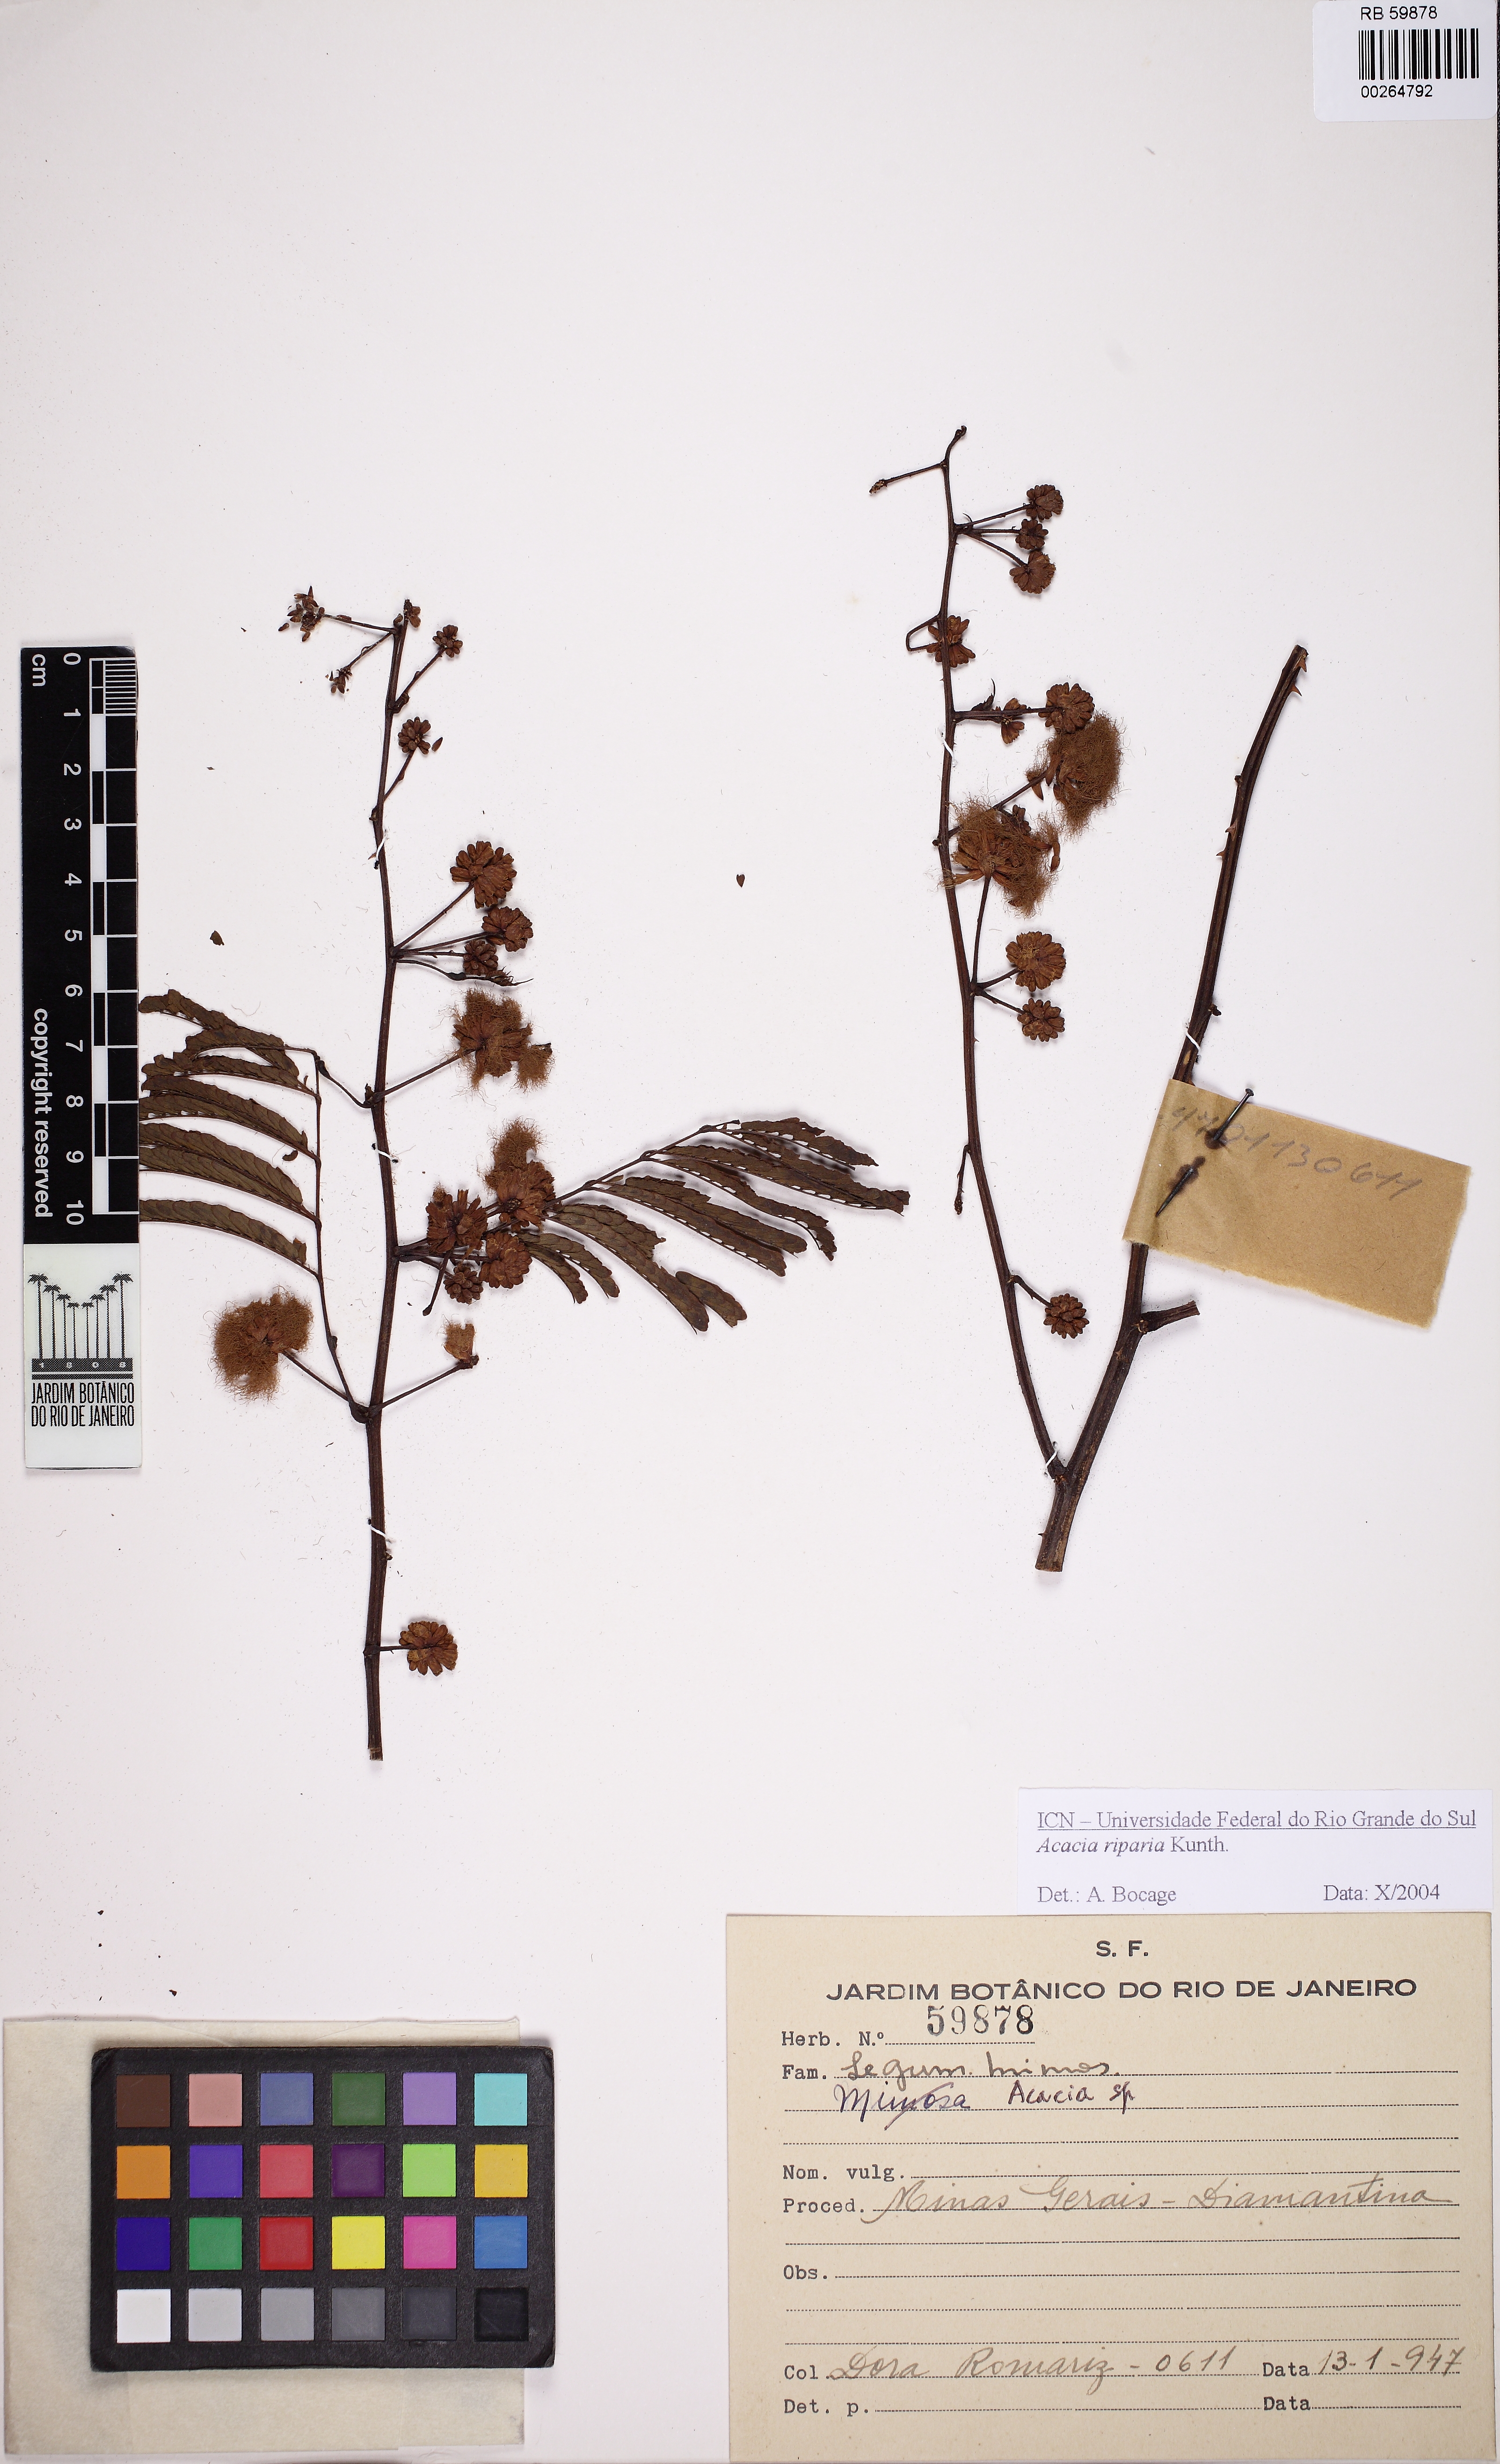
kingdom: Plantae
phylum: Tracheophyta
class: Magnoliopsida
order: Fabales
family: Fabaceae
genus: Senegalia
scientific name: Senegalia riparia
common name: Catch-and-keep
